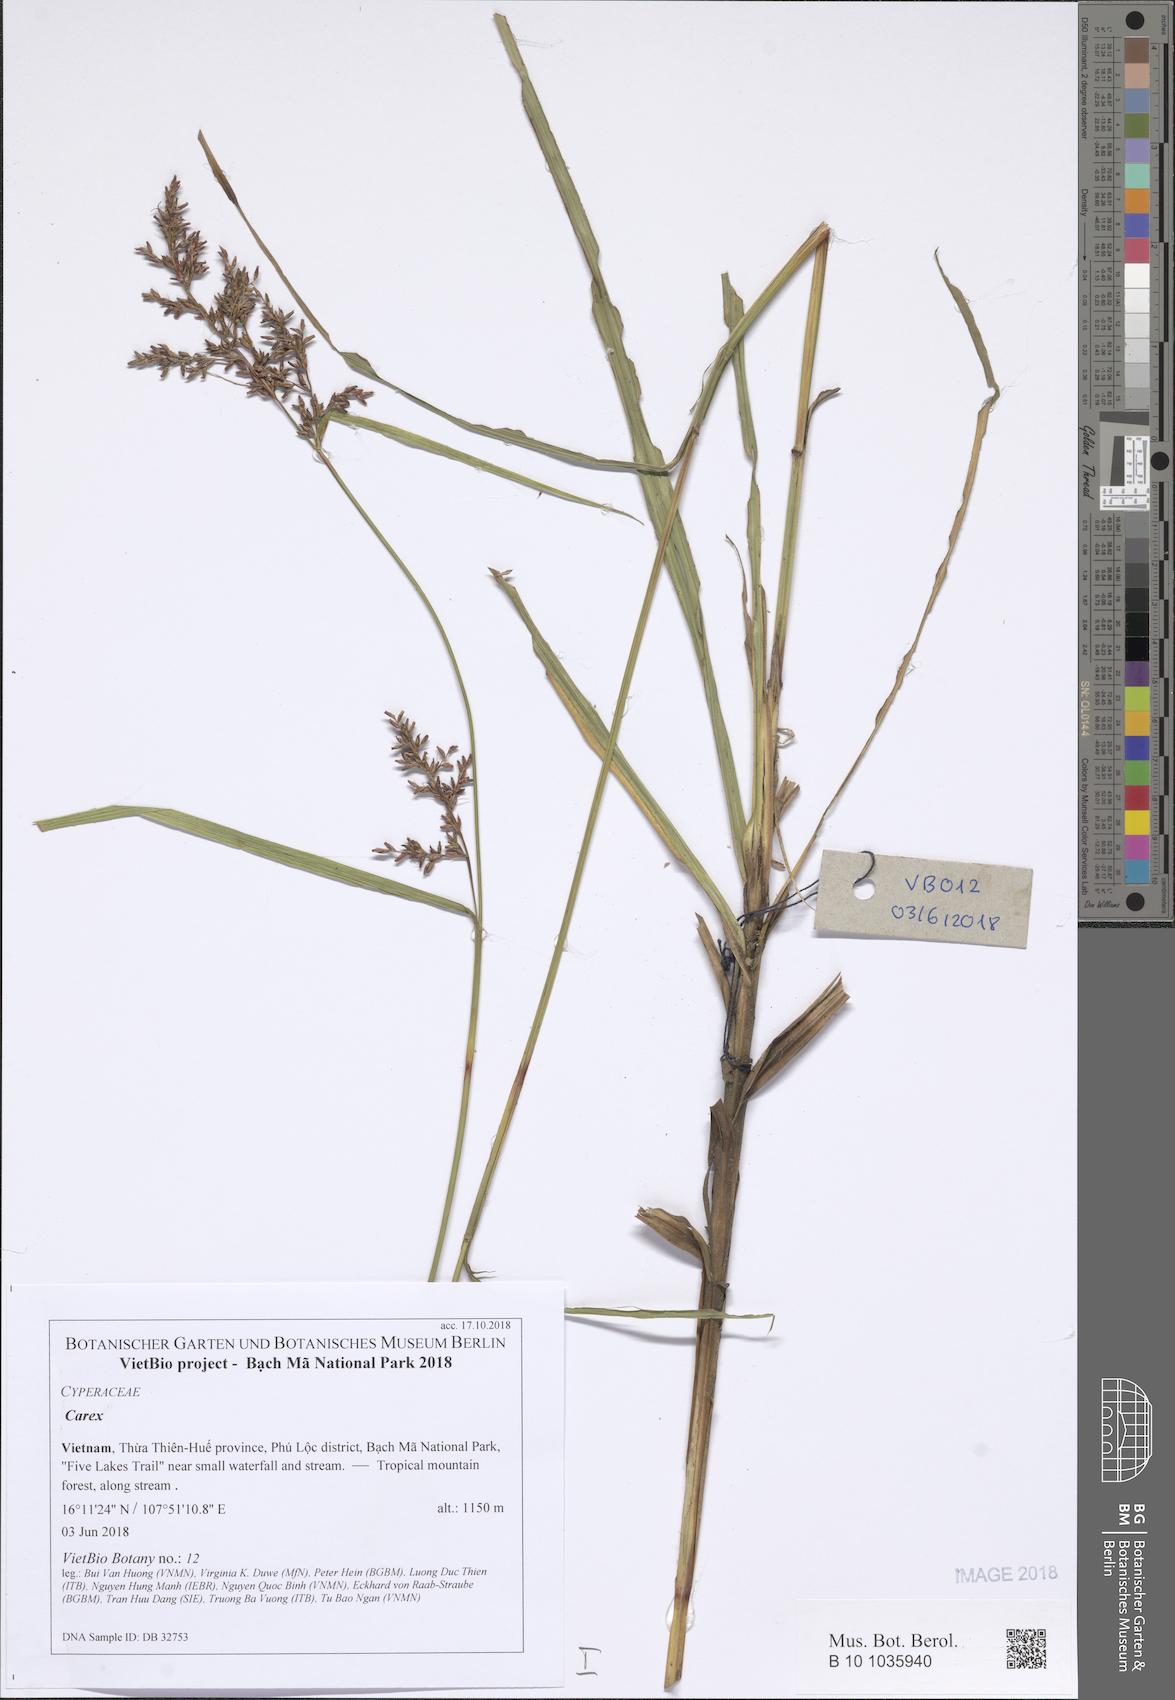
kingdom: Plantae
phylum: Tracheophyta
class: Liliopsida
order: Poales
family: Cyperaceae
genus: Carex
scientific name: Carex
